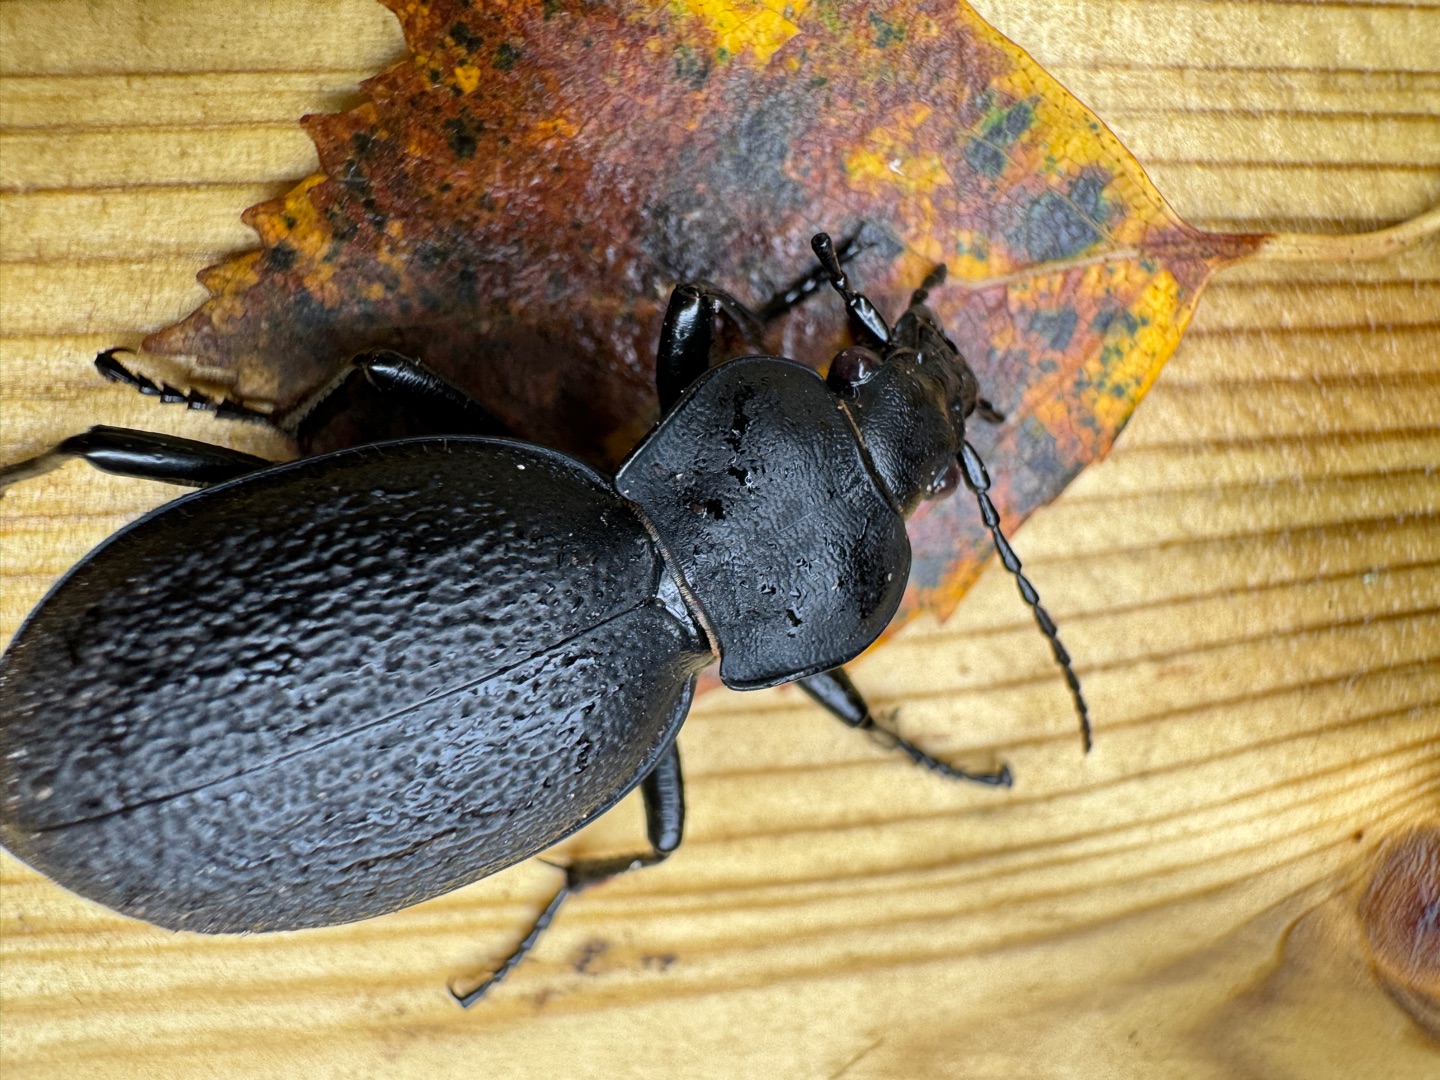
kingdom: Animalia
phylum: Arthropoda
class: Insecta
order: Coleoptera
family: Carabidae
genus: Carabus
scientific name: Carabus coriaceus
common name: Læderløber
